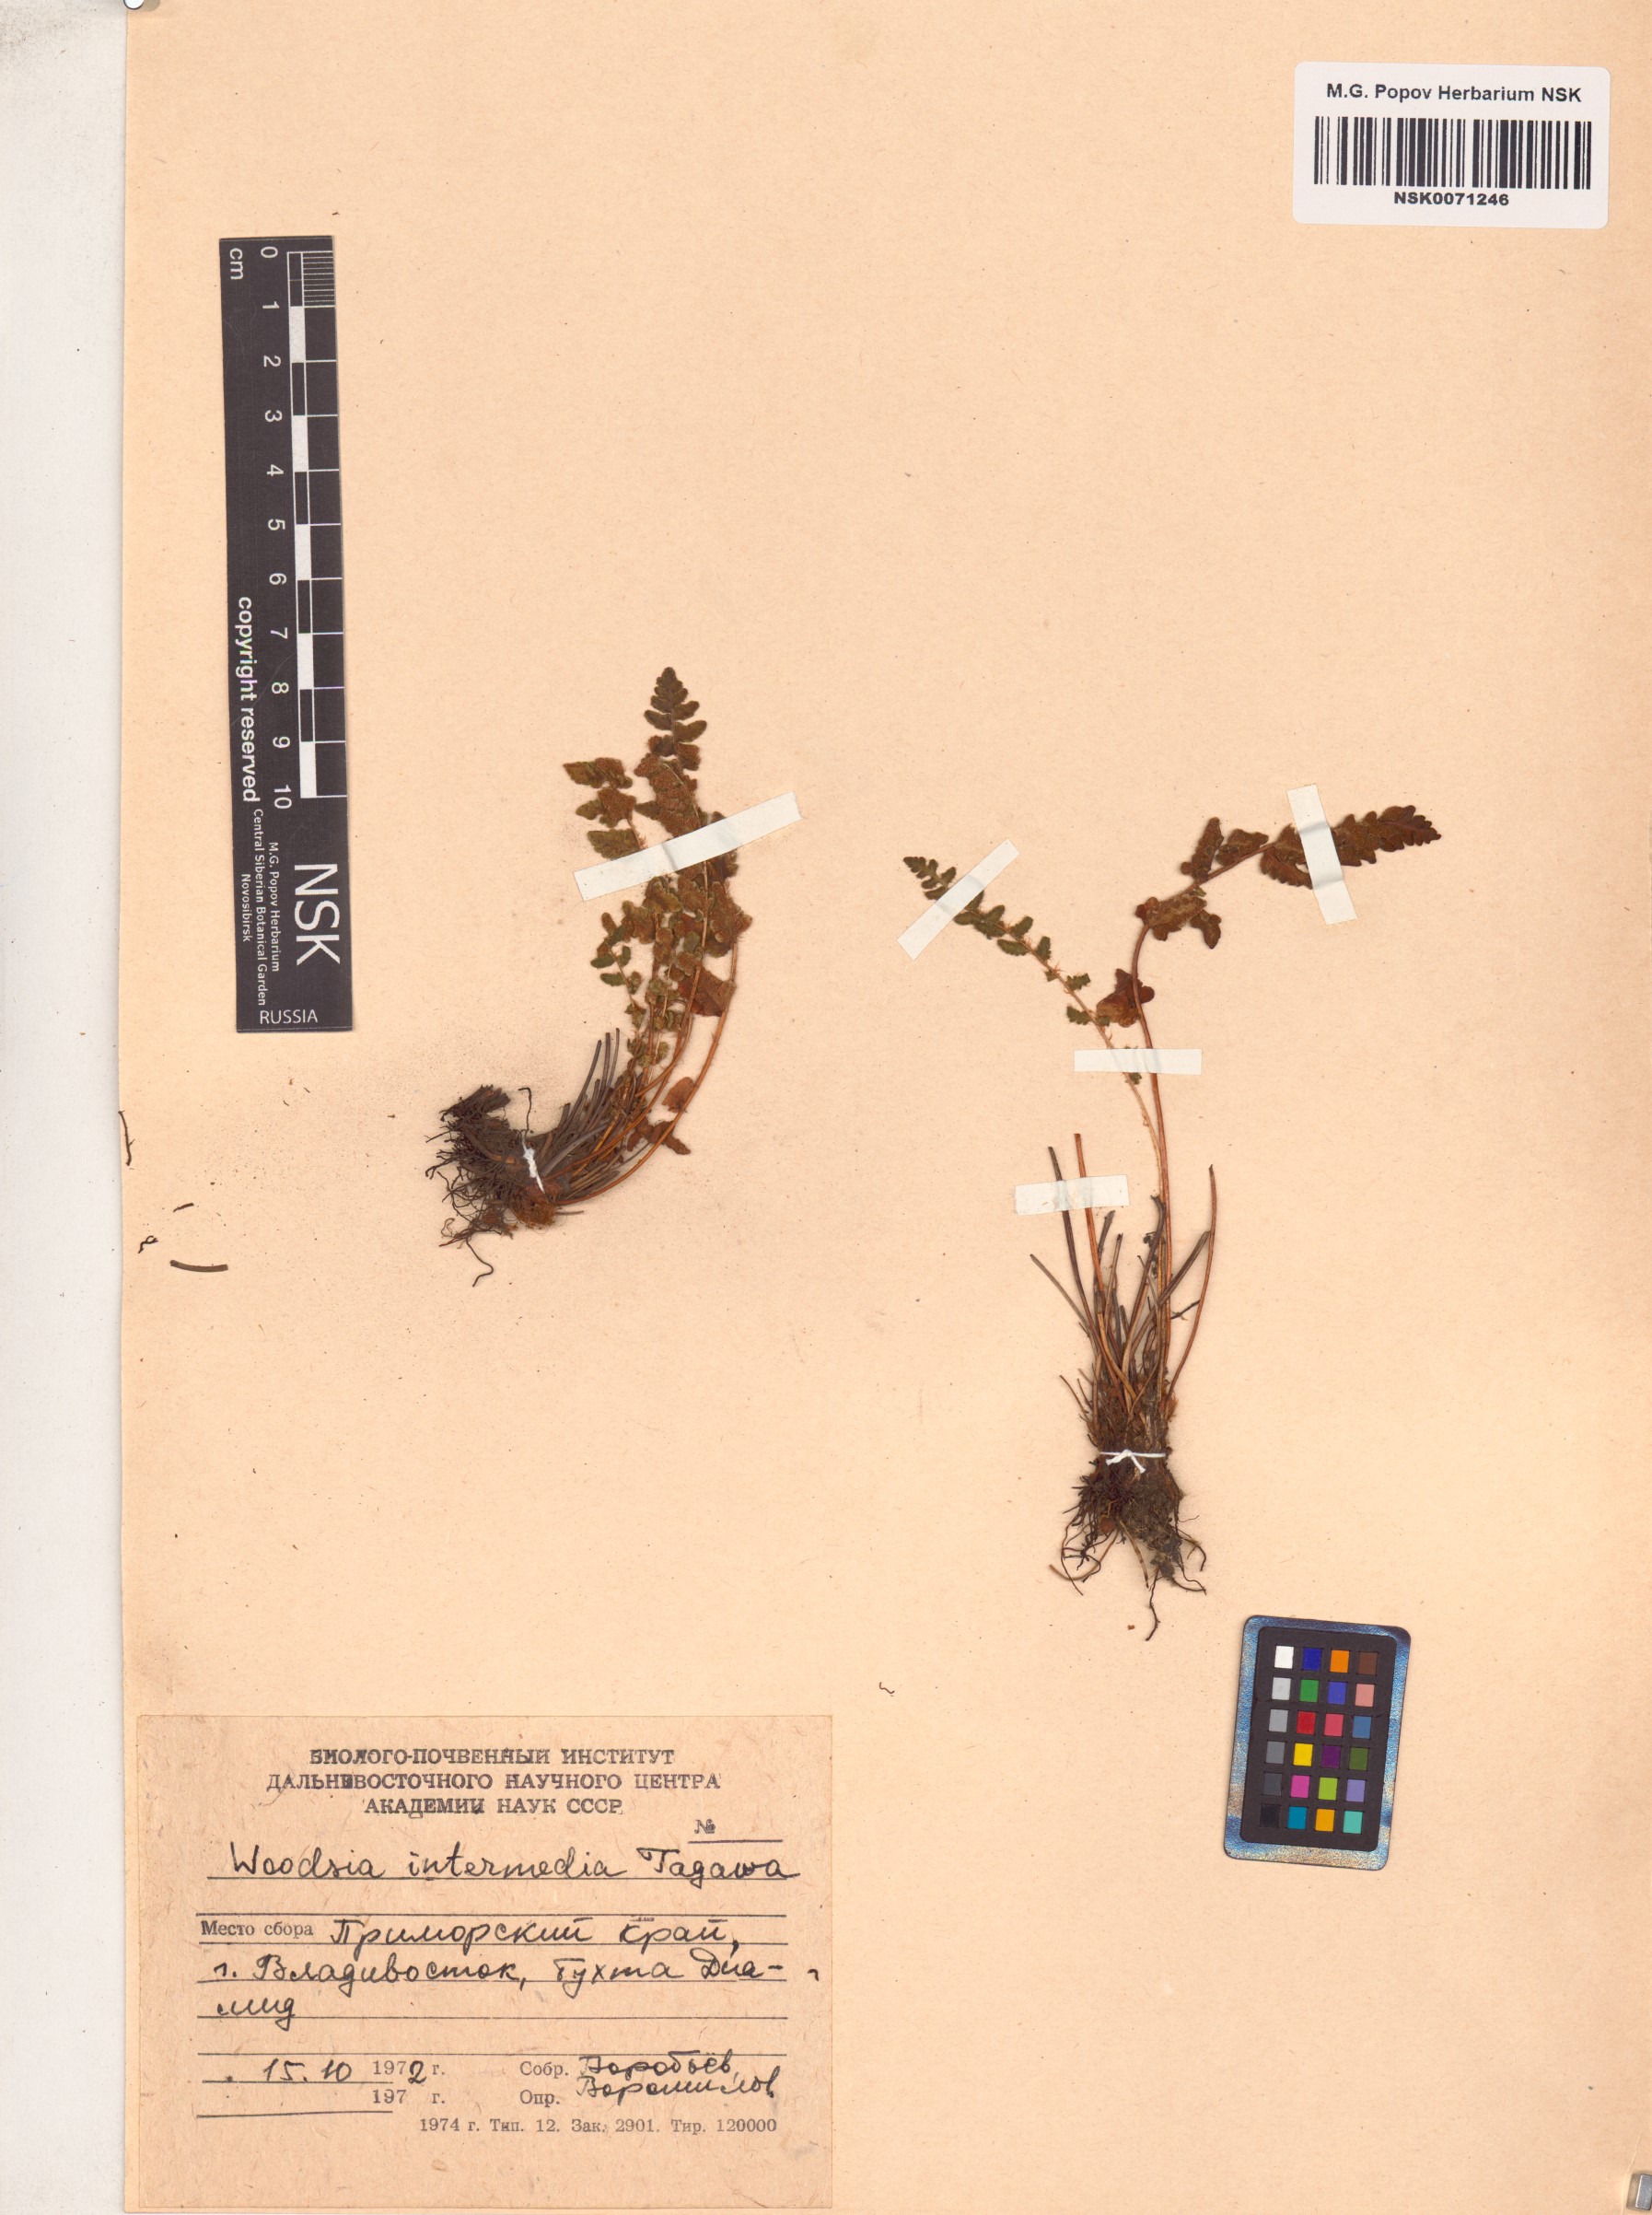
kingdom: Plantae
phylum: Tracheophyta
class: Polypodiopsida
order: Polypodiales
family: Woodsiaceae
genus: Woodsia
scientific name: Woodsia taishanensis
